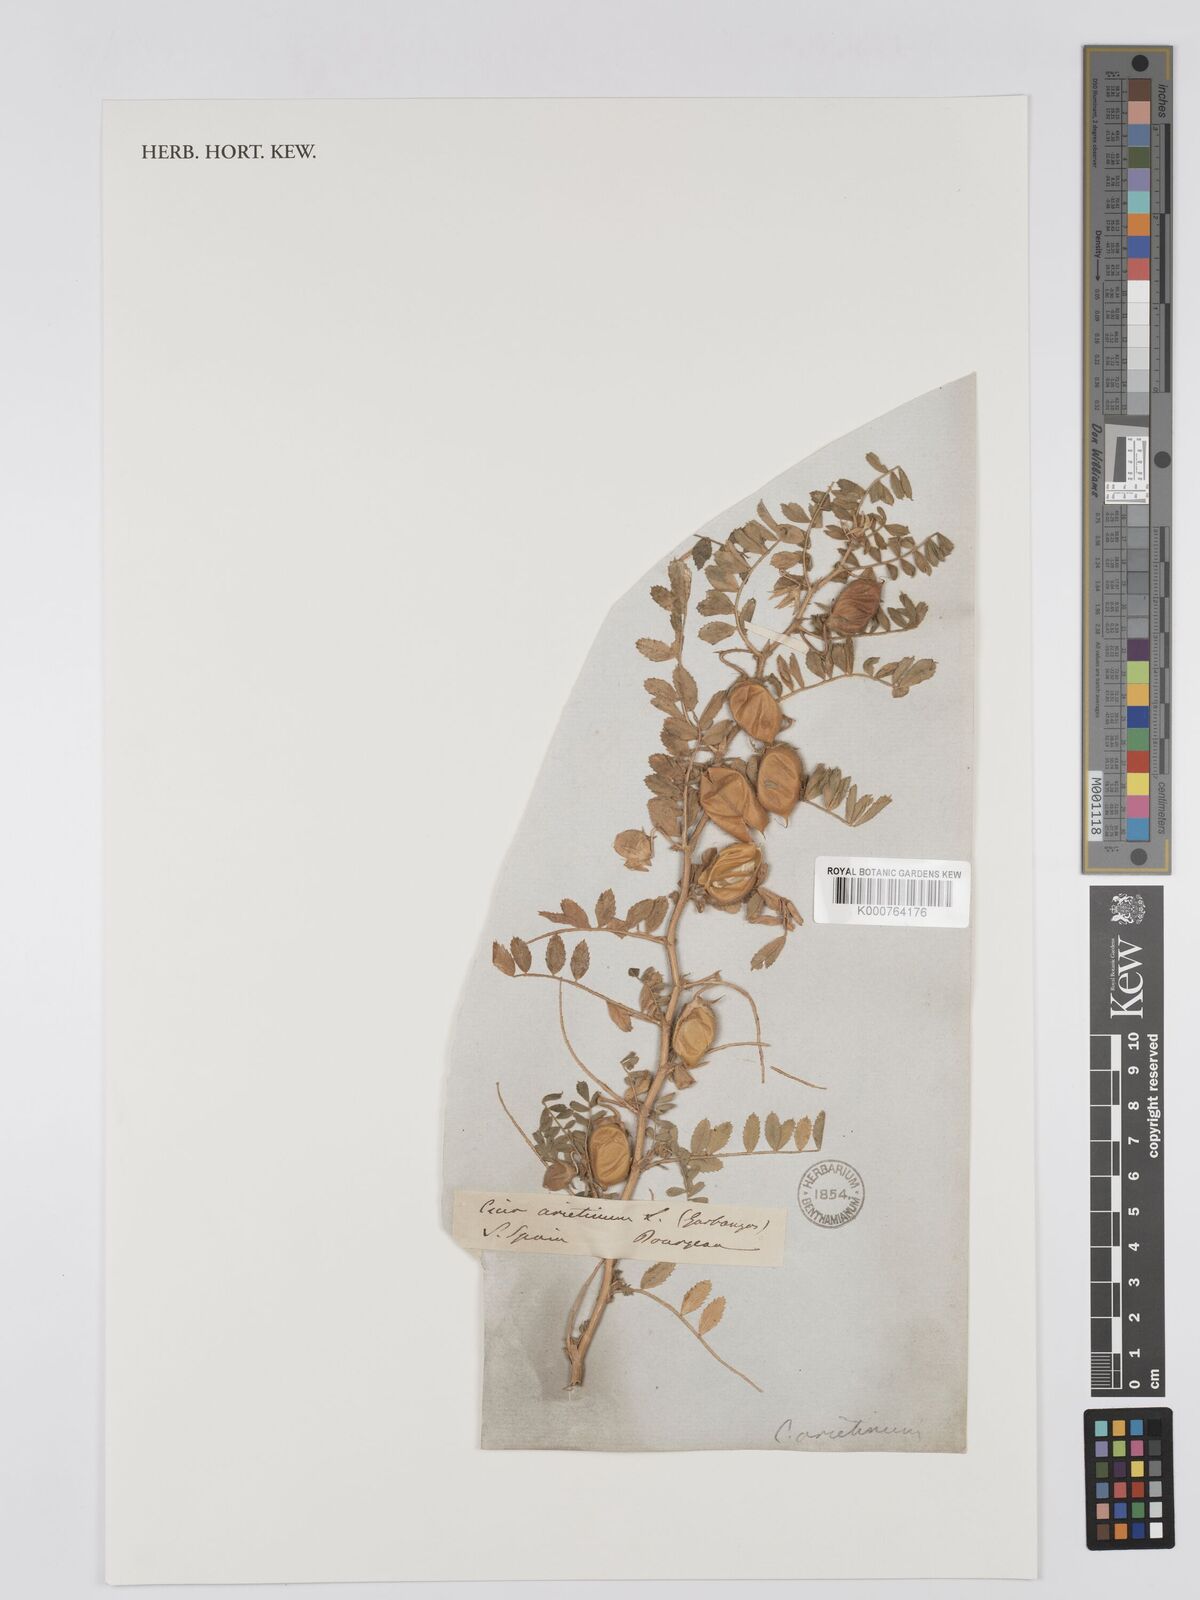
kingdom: Plantae
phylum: Tracheophyta
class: Magnoliopsida
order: Fabales
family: Fabaceae
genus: Cicer
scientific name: Cicer arietinum
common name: Chick pea
